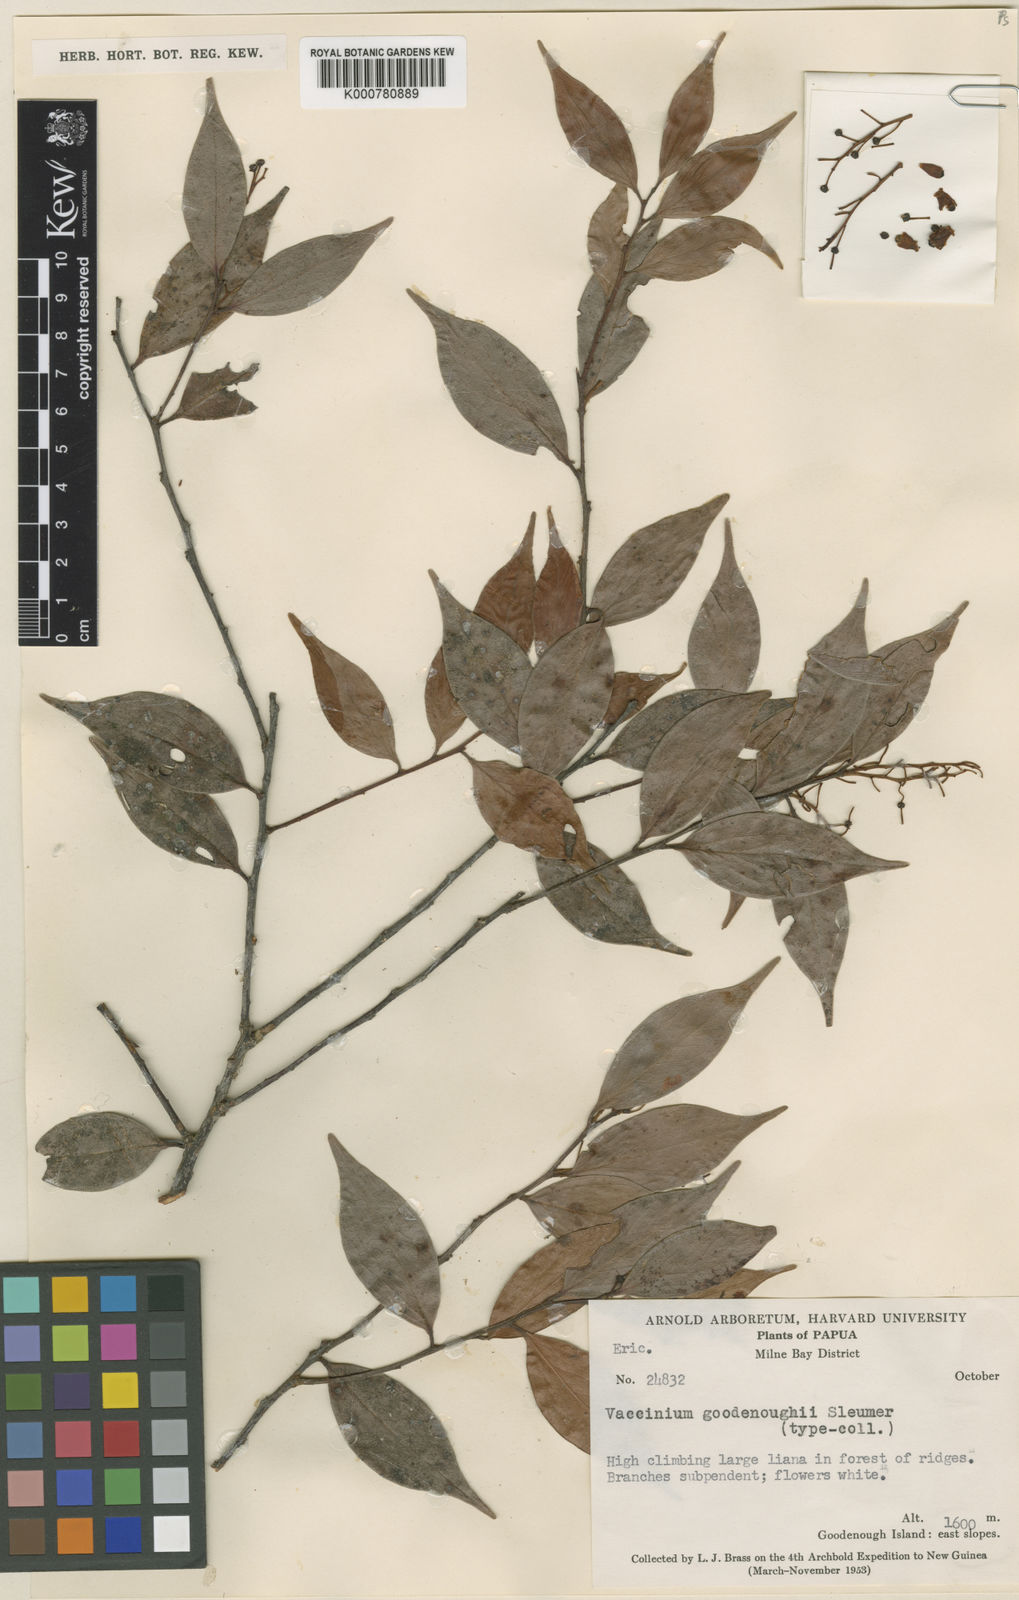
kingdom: Plantae
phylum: Tracheophyta
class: Magnoliopsida
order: Ericales
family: Ericaceae
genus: Vaccinium
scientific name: Vaccinium goodenoughii
